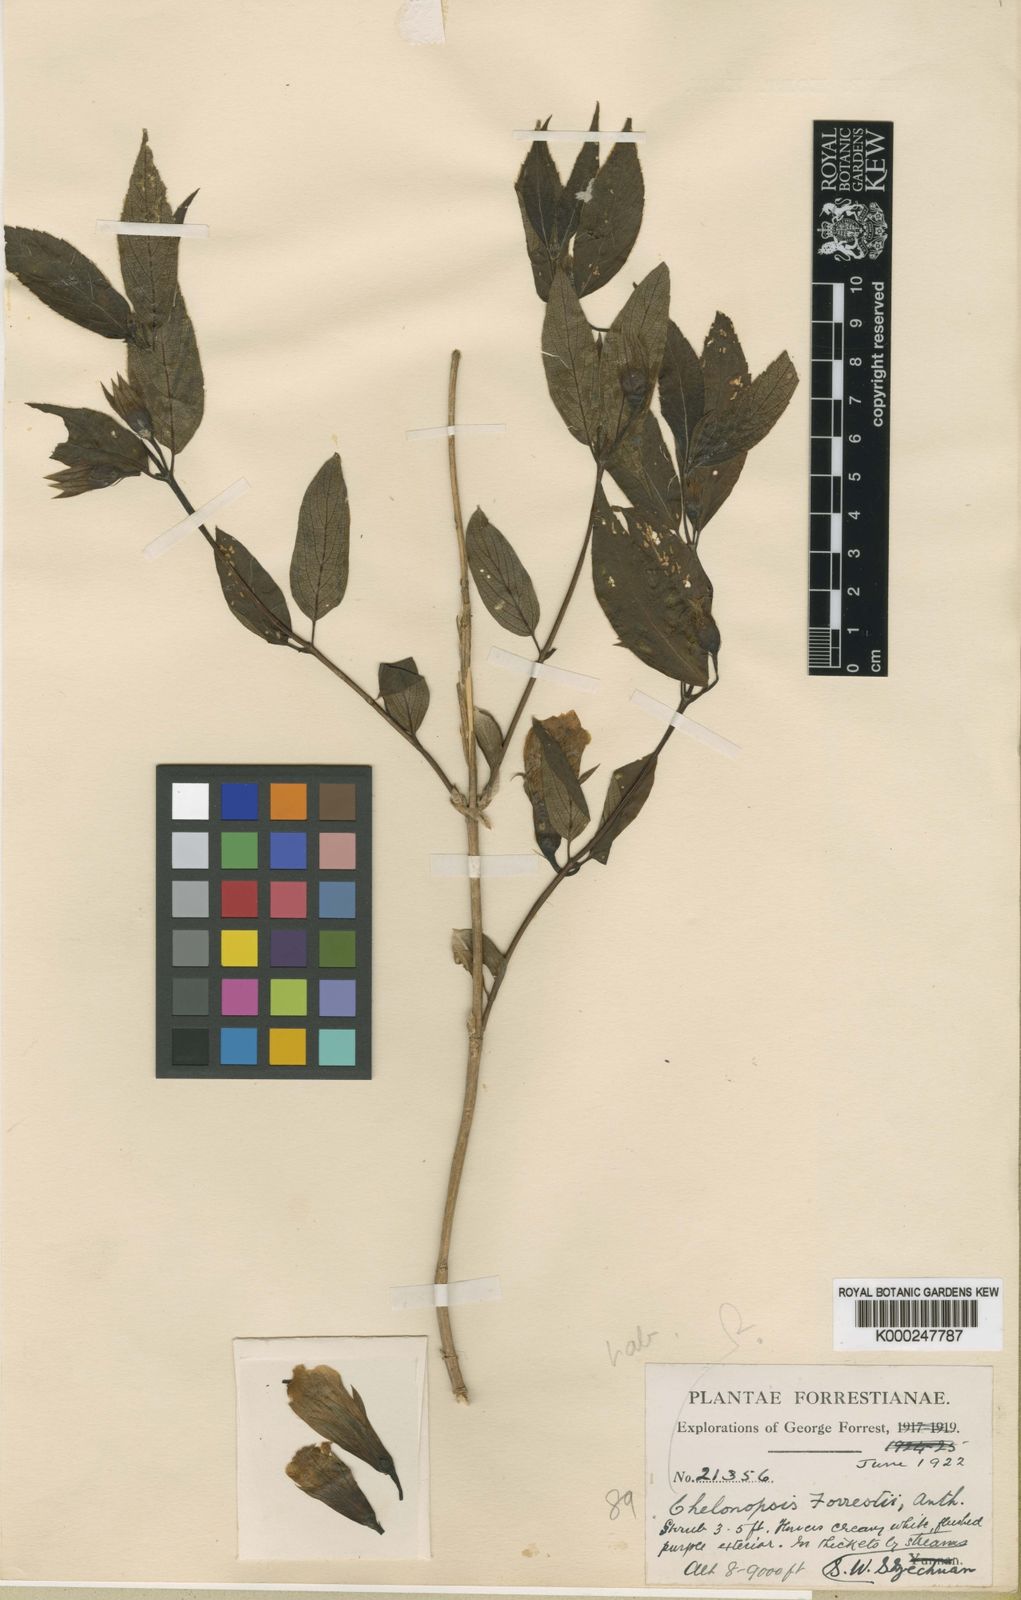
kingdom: Plantae
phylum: Tracheophyta
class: Magnoliopsida
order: Lamiales
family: Lamiaceae
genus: Chelonopsis
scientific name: Chelonopsis forrestii
